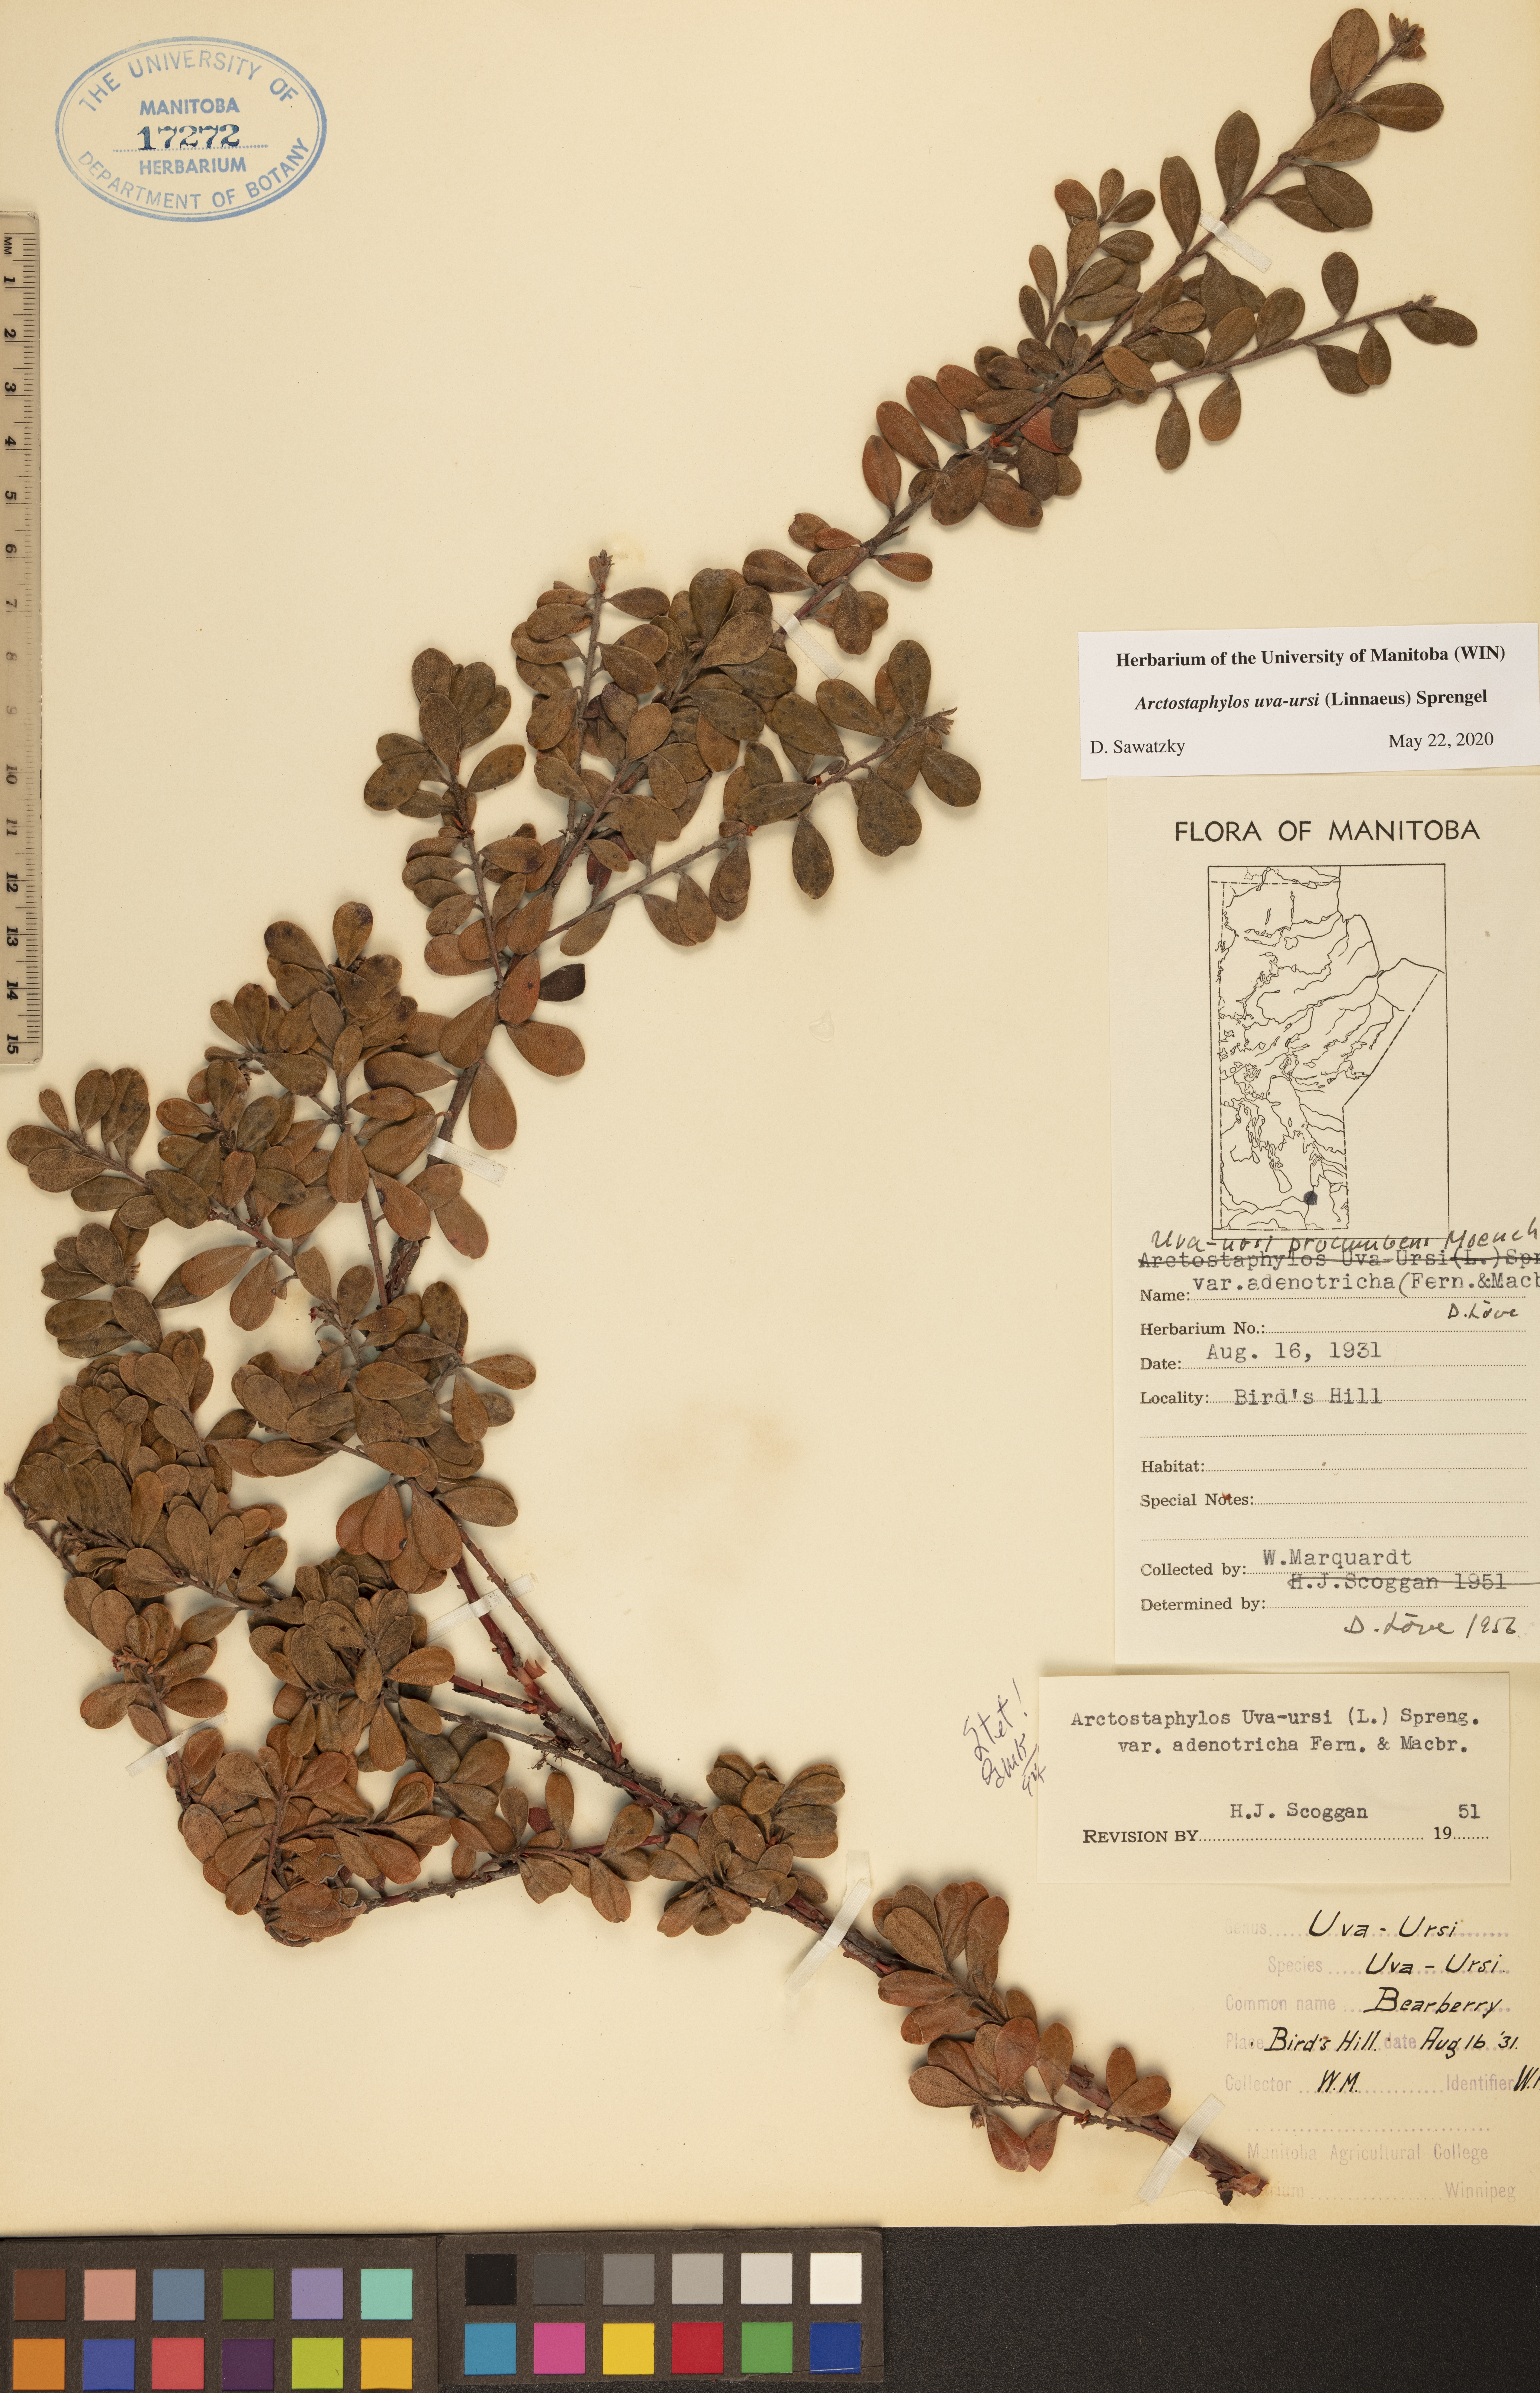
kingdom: Plantae
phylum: Tracheophyta
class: Magnoliopsida
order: Ericales
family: Ericaceae
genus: Arctostaphylos
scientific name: Arctostaphylos uva-ursi
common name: Bearberry
